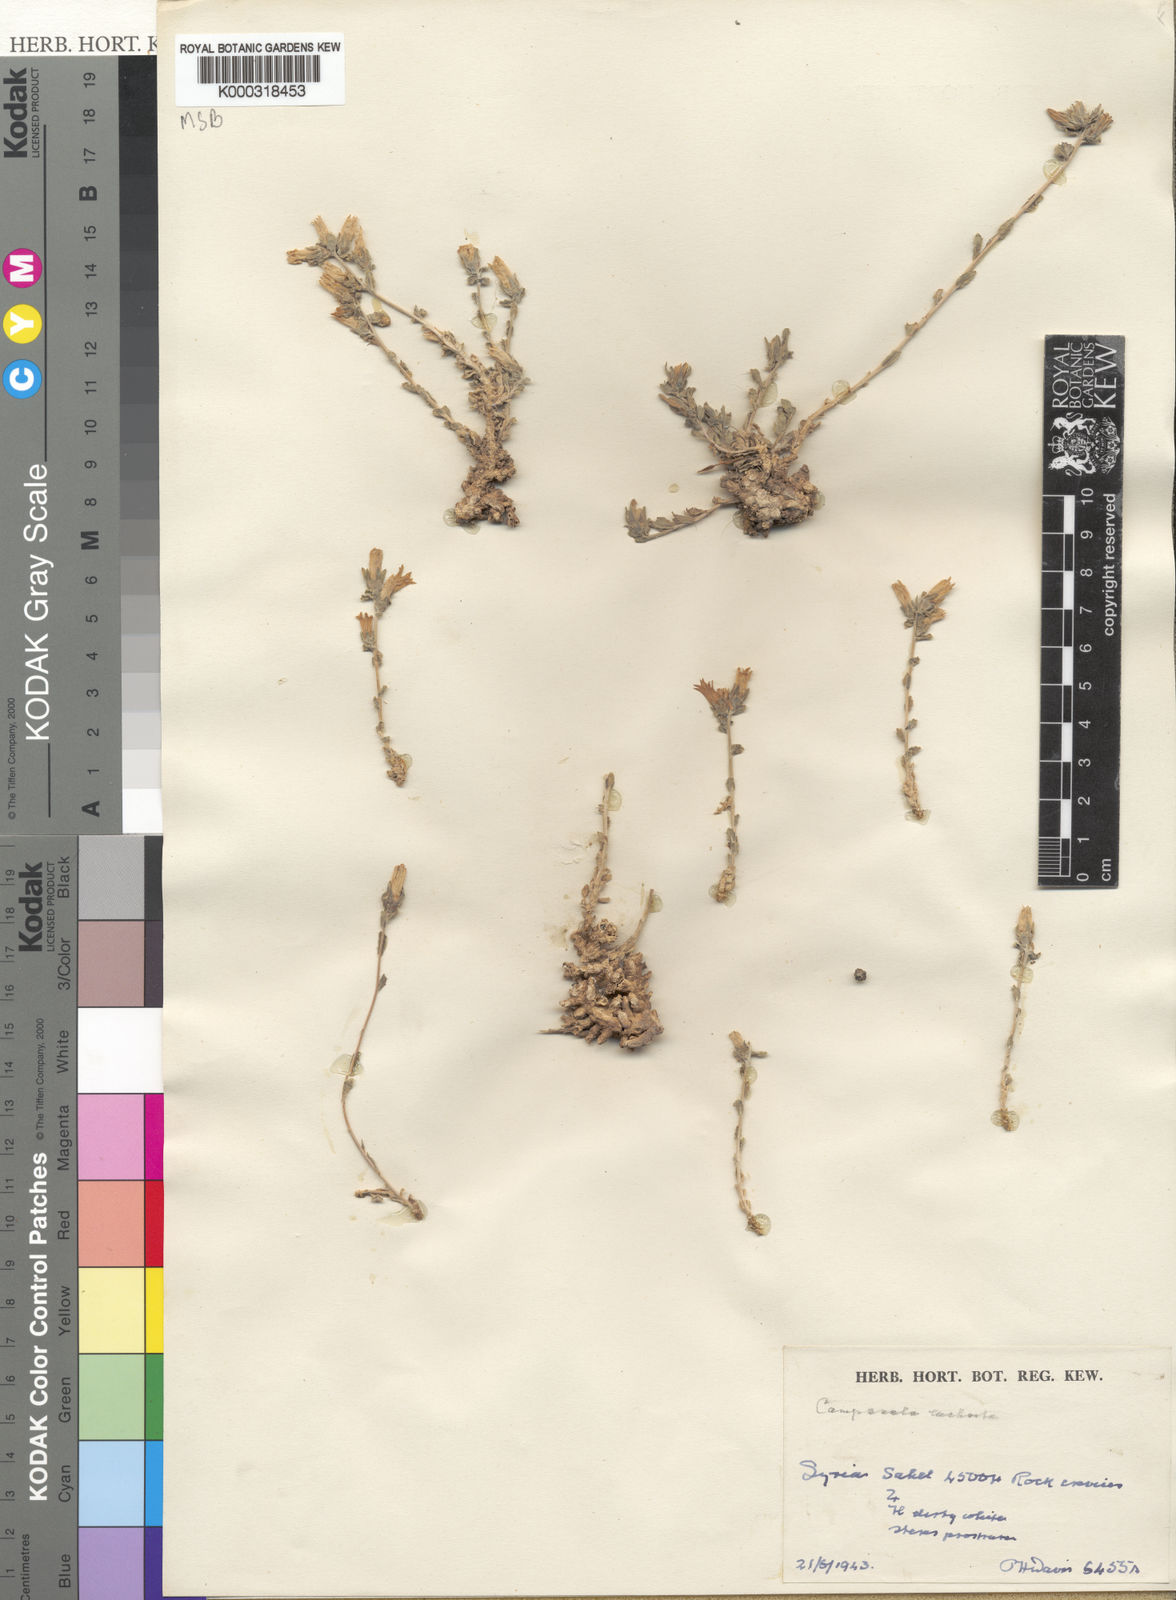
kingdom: Plantae
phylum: Tracheophyta
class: Magnoliopsida
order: Asterales
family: Campanulaceae
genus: Campanula
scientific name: Campanula euclasta
